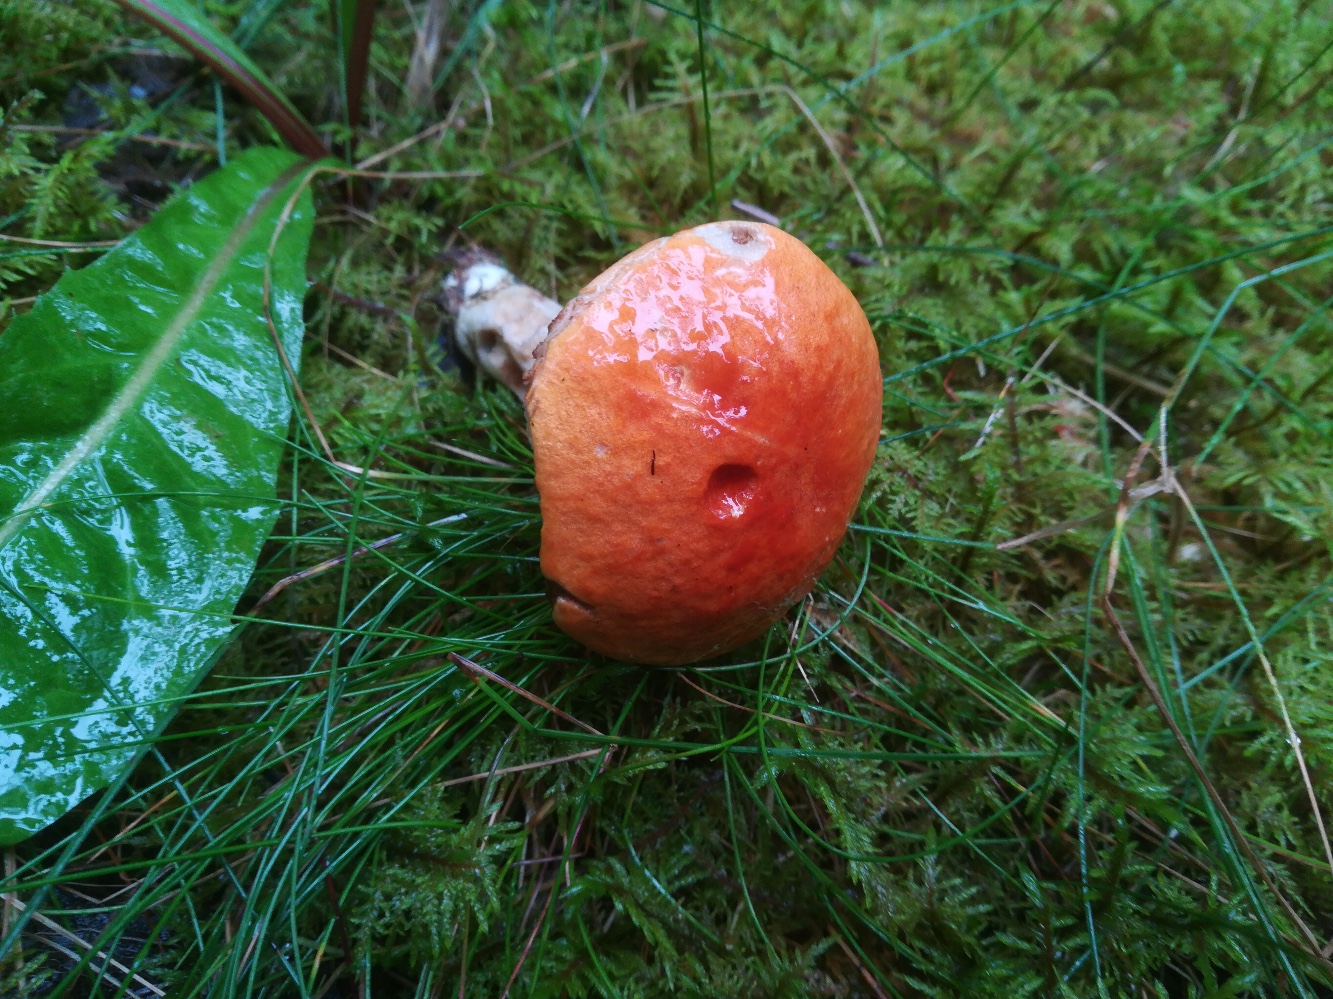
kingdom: Fungi
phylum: Basidiomycota
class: Agaricomycetes
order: Boletales
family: Boletaceae
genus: Leccinum
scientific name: Leccinum albostipitatum
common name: aspe-skælrørhat
